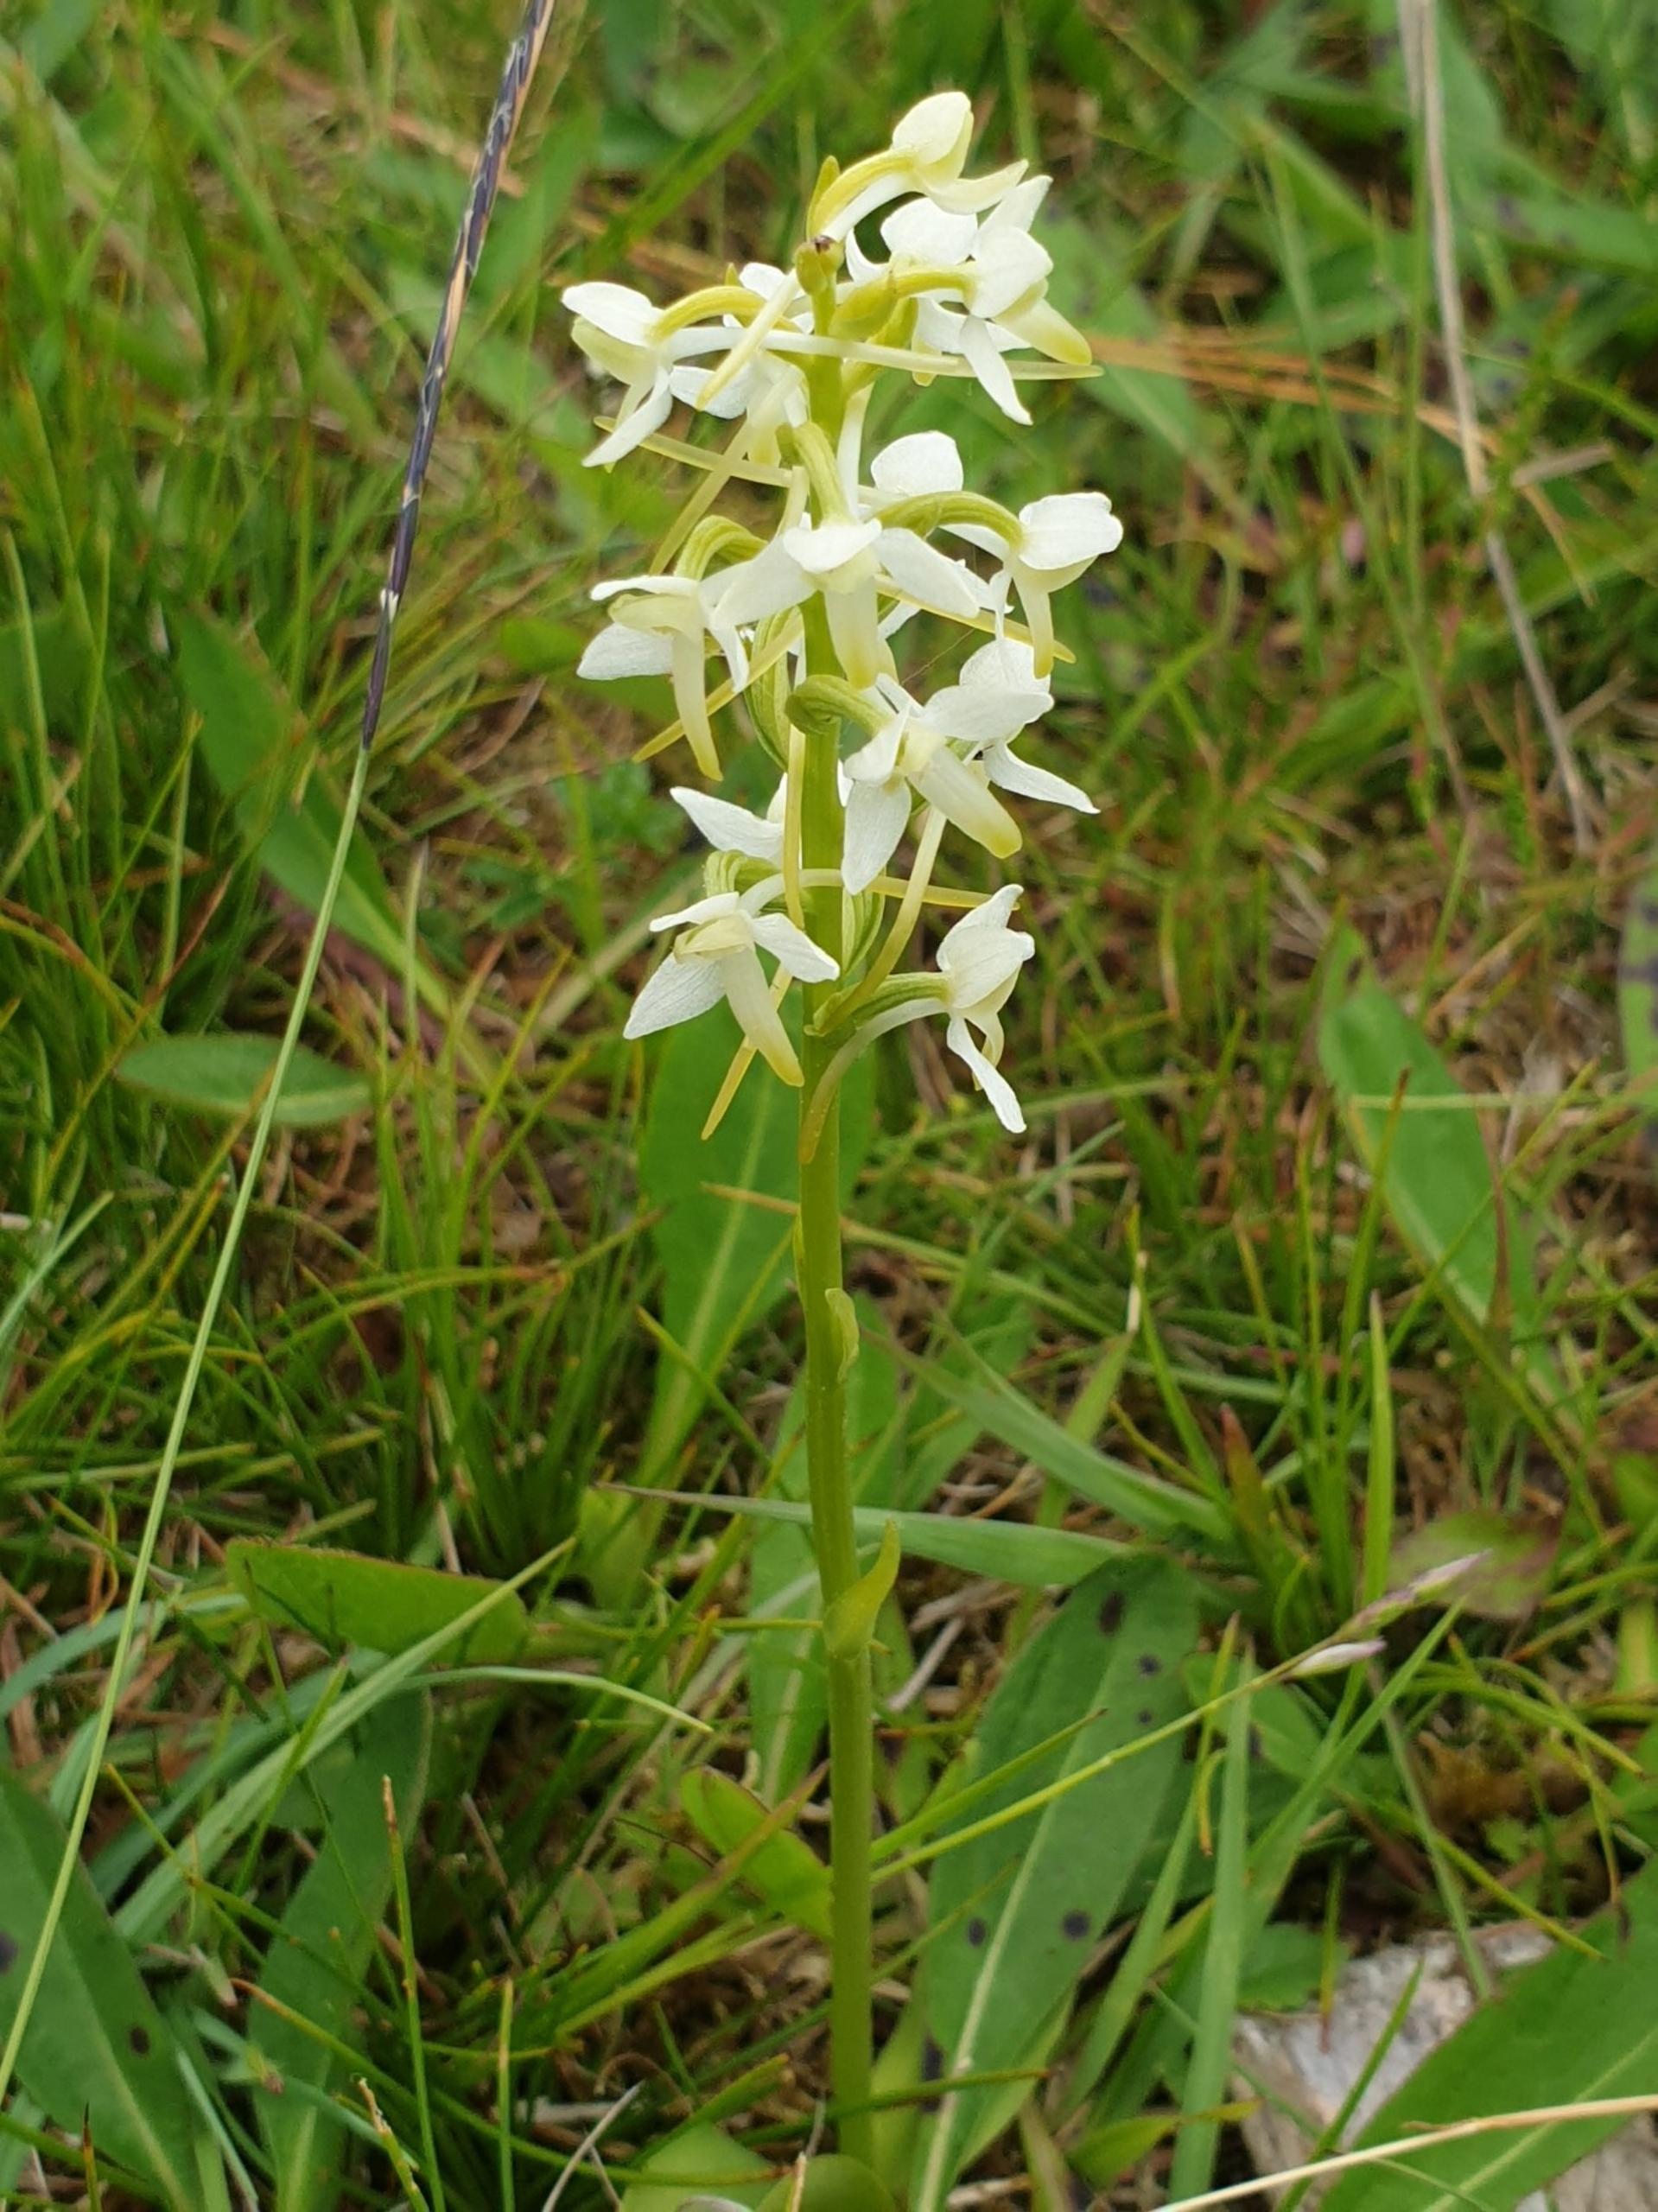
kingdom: Plantae
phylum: Tracheophyta
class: Liliopsida
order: Asparagales
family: Orchidaceae
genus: Platanthera
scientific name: Platanthera bifolia
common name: Bakke-gøgelilje
